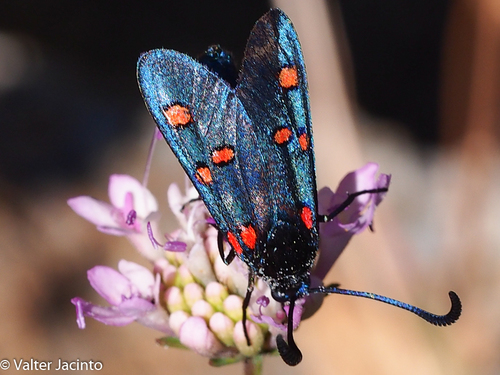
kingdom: Animalia
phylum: Arthropoda
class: Insecta
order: Lepidoptera
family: Zygaenidae
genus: Zygaena
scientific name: Zygaena lavandulae
